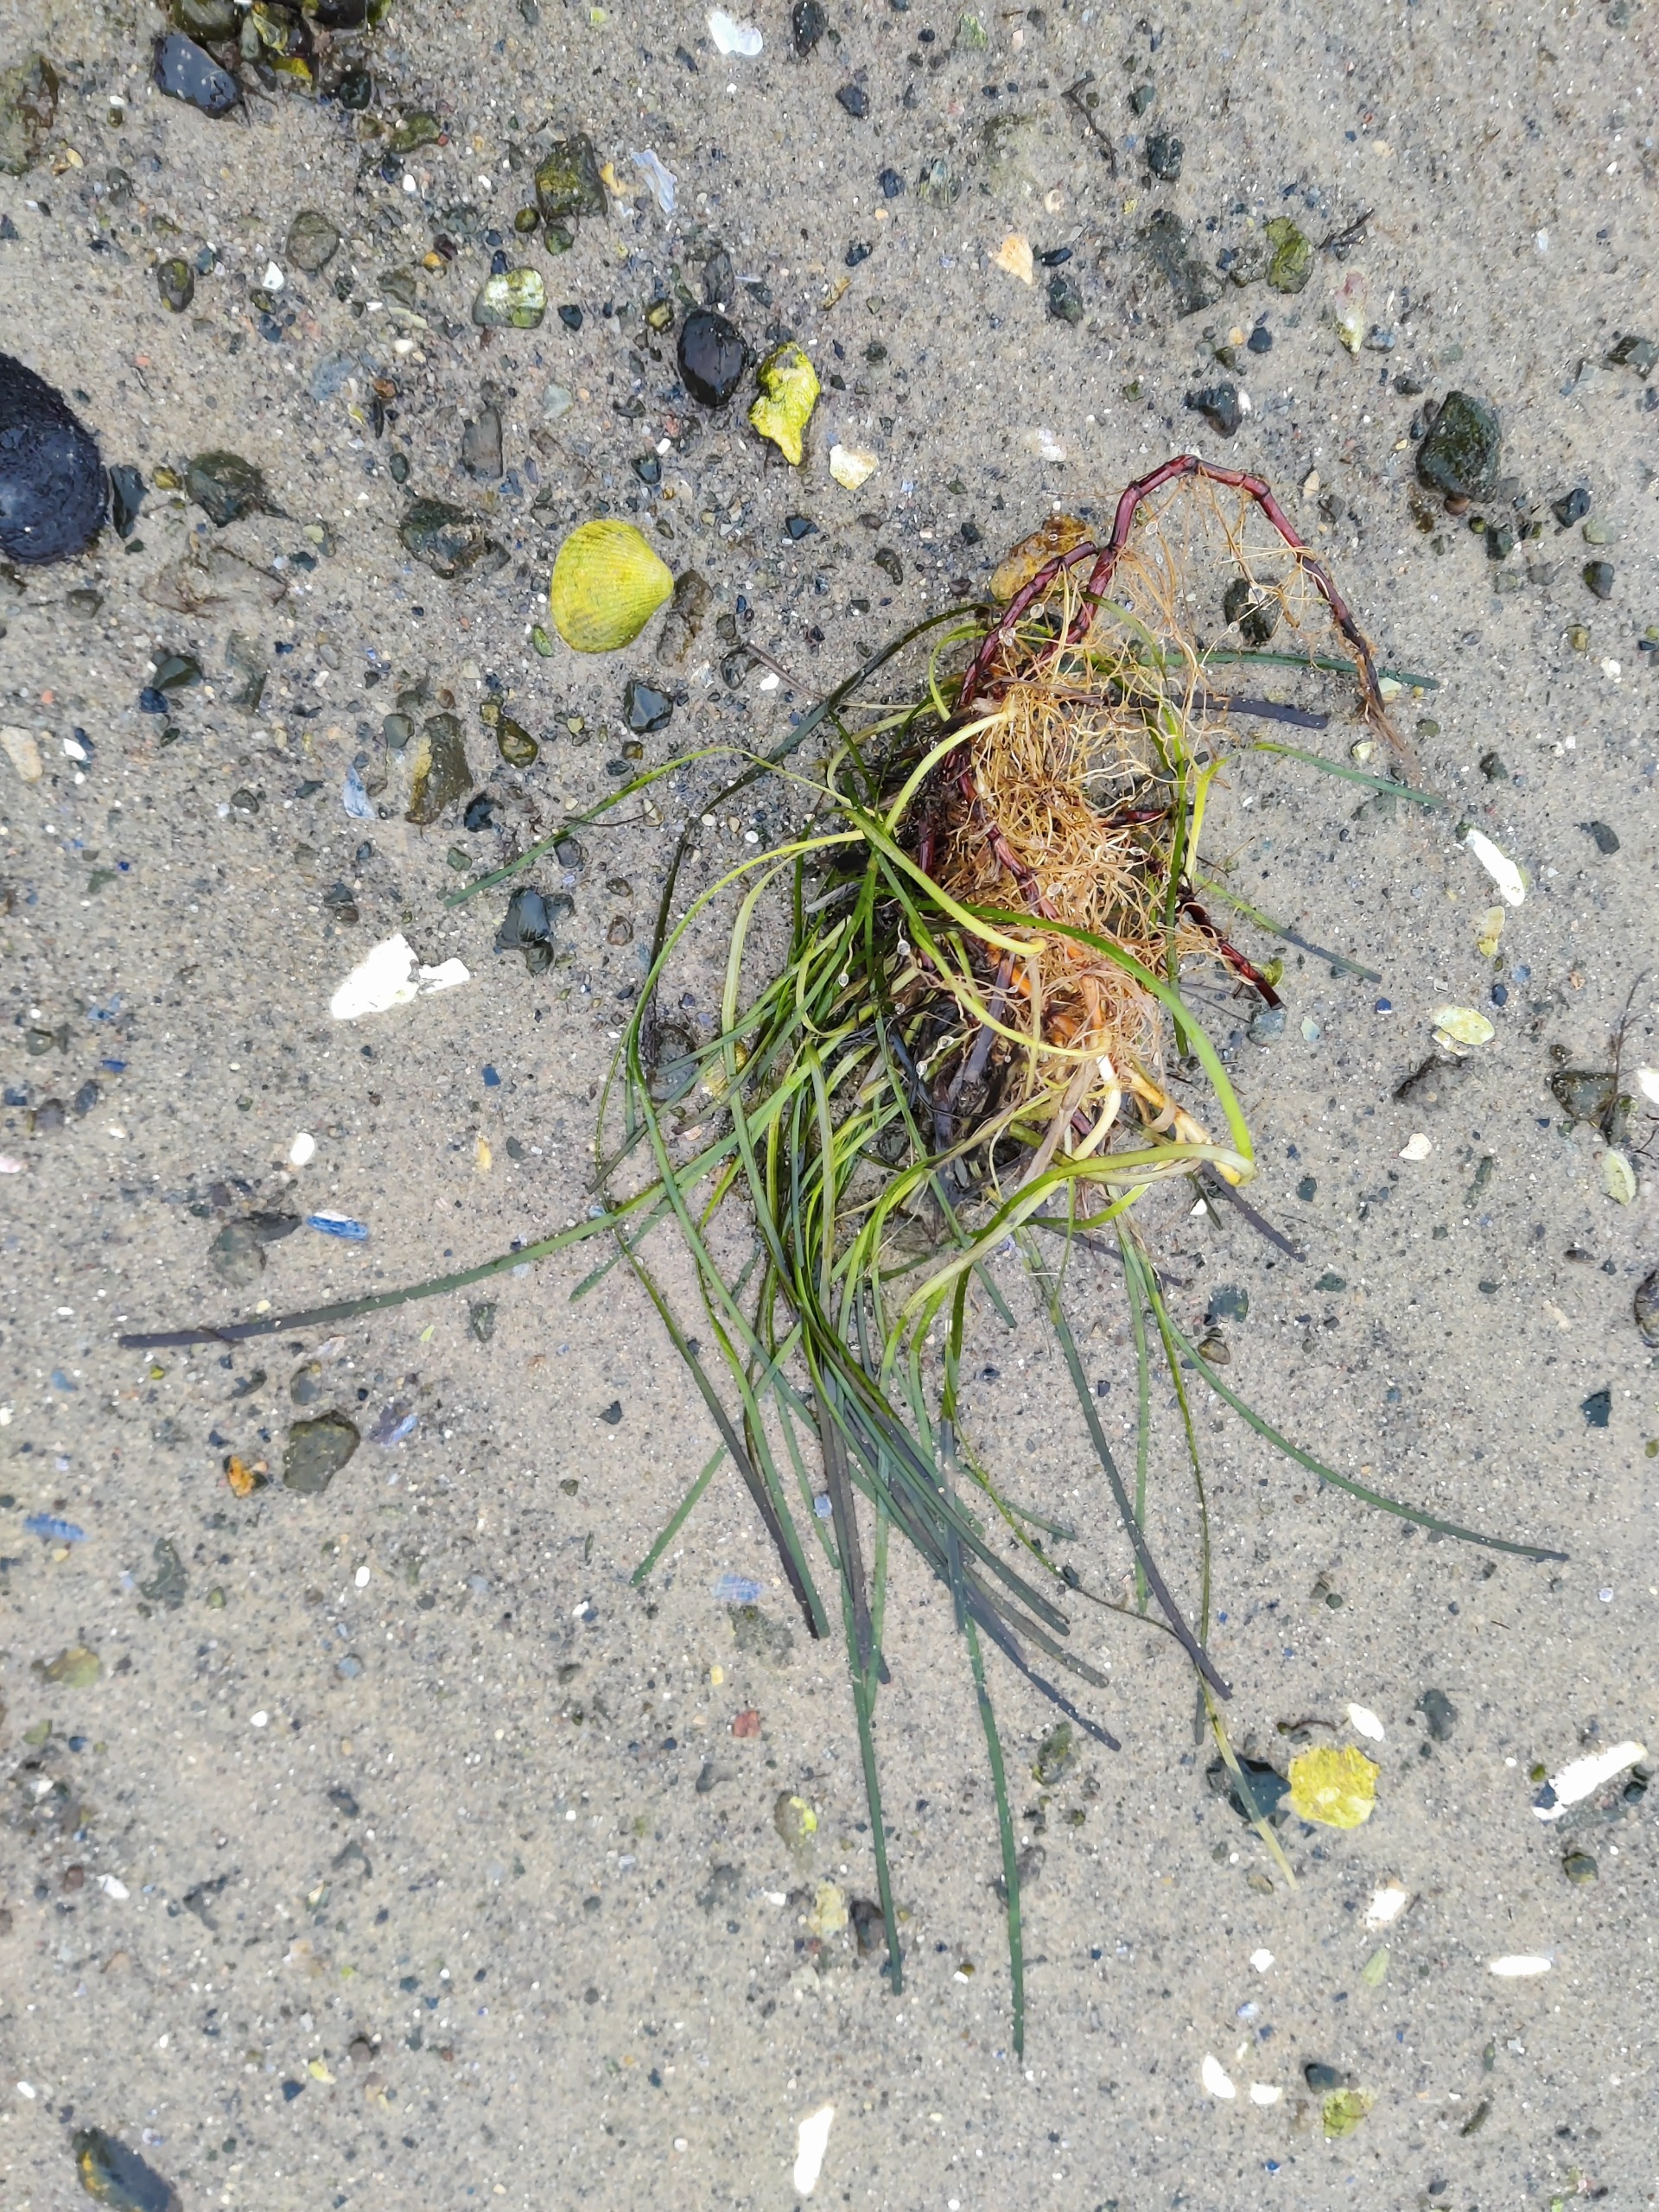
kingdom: Plantae
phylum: Tracheophyta
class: Liliopsida
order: Alismatales
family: Zosteraceae
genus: Zostera
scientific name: Zostera marina
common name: Almindelig bændeltang
